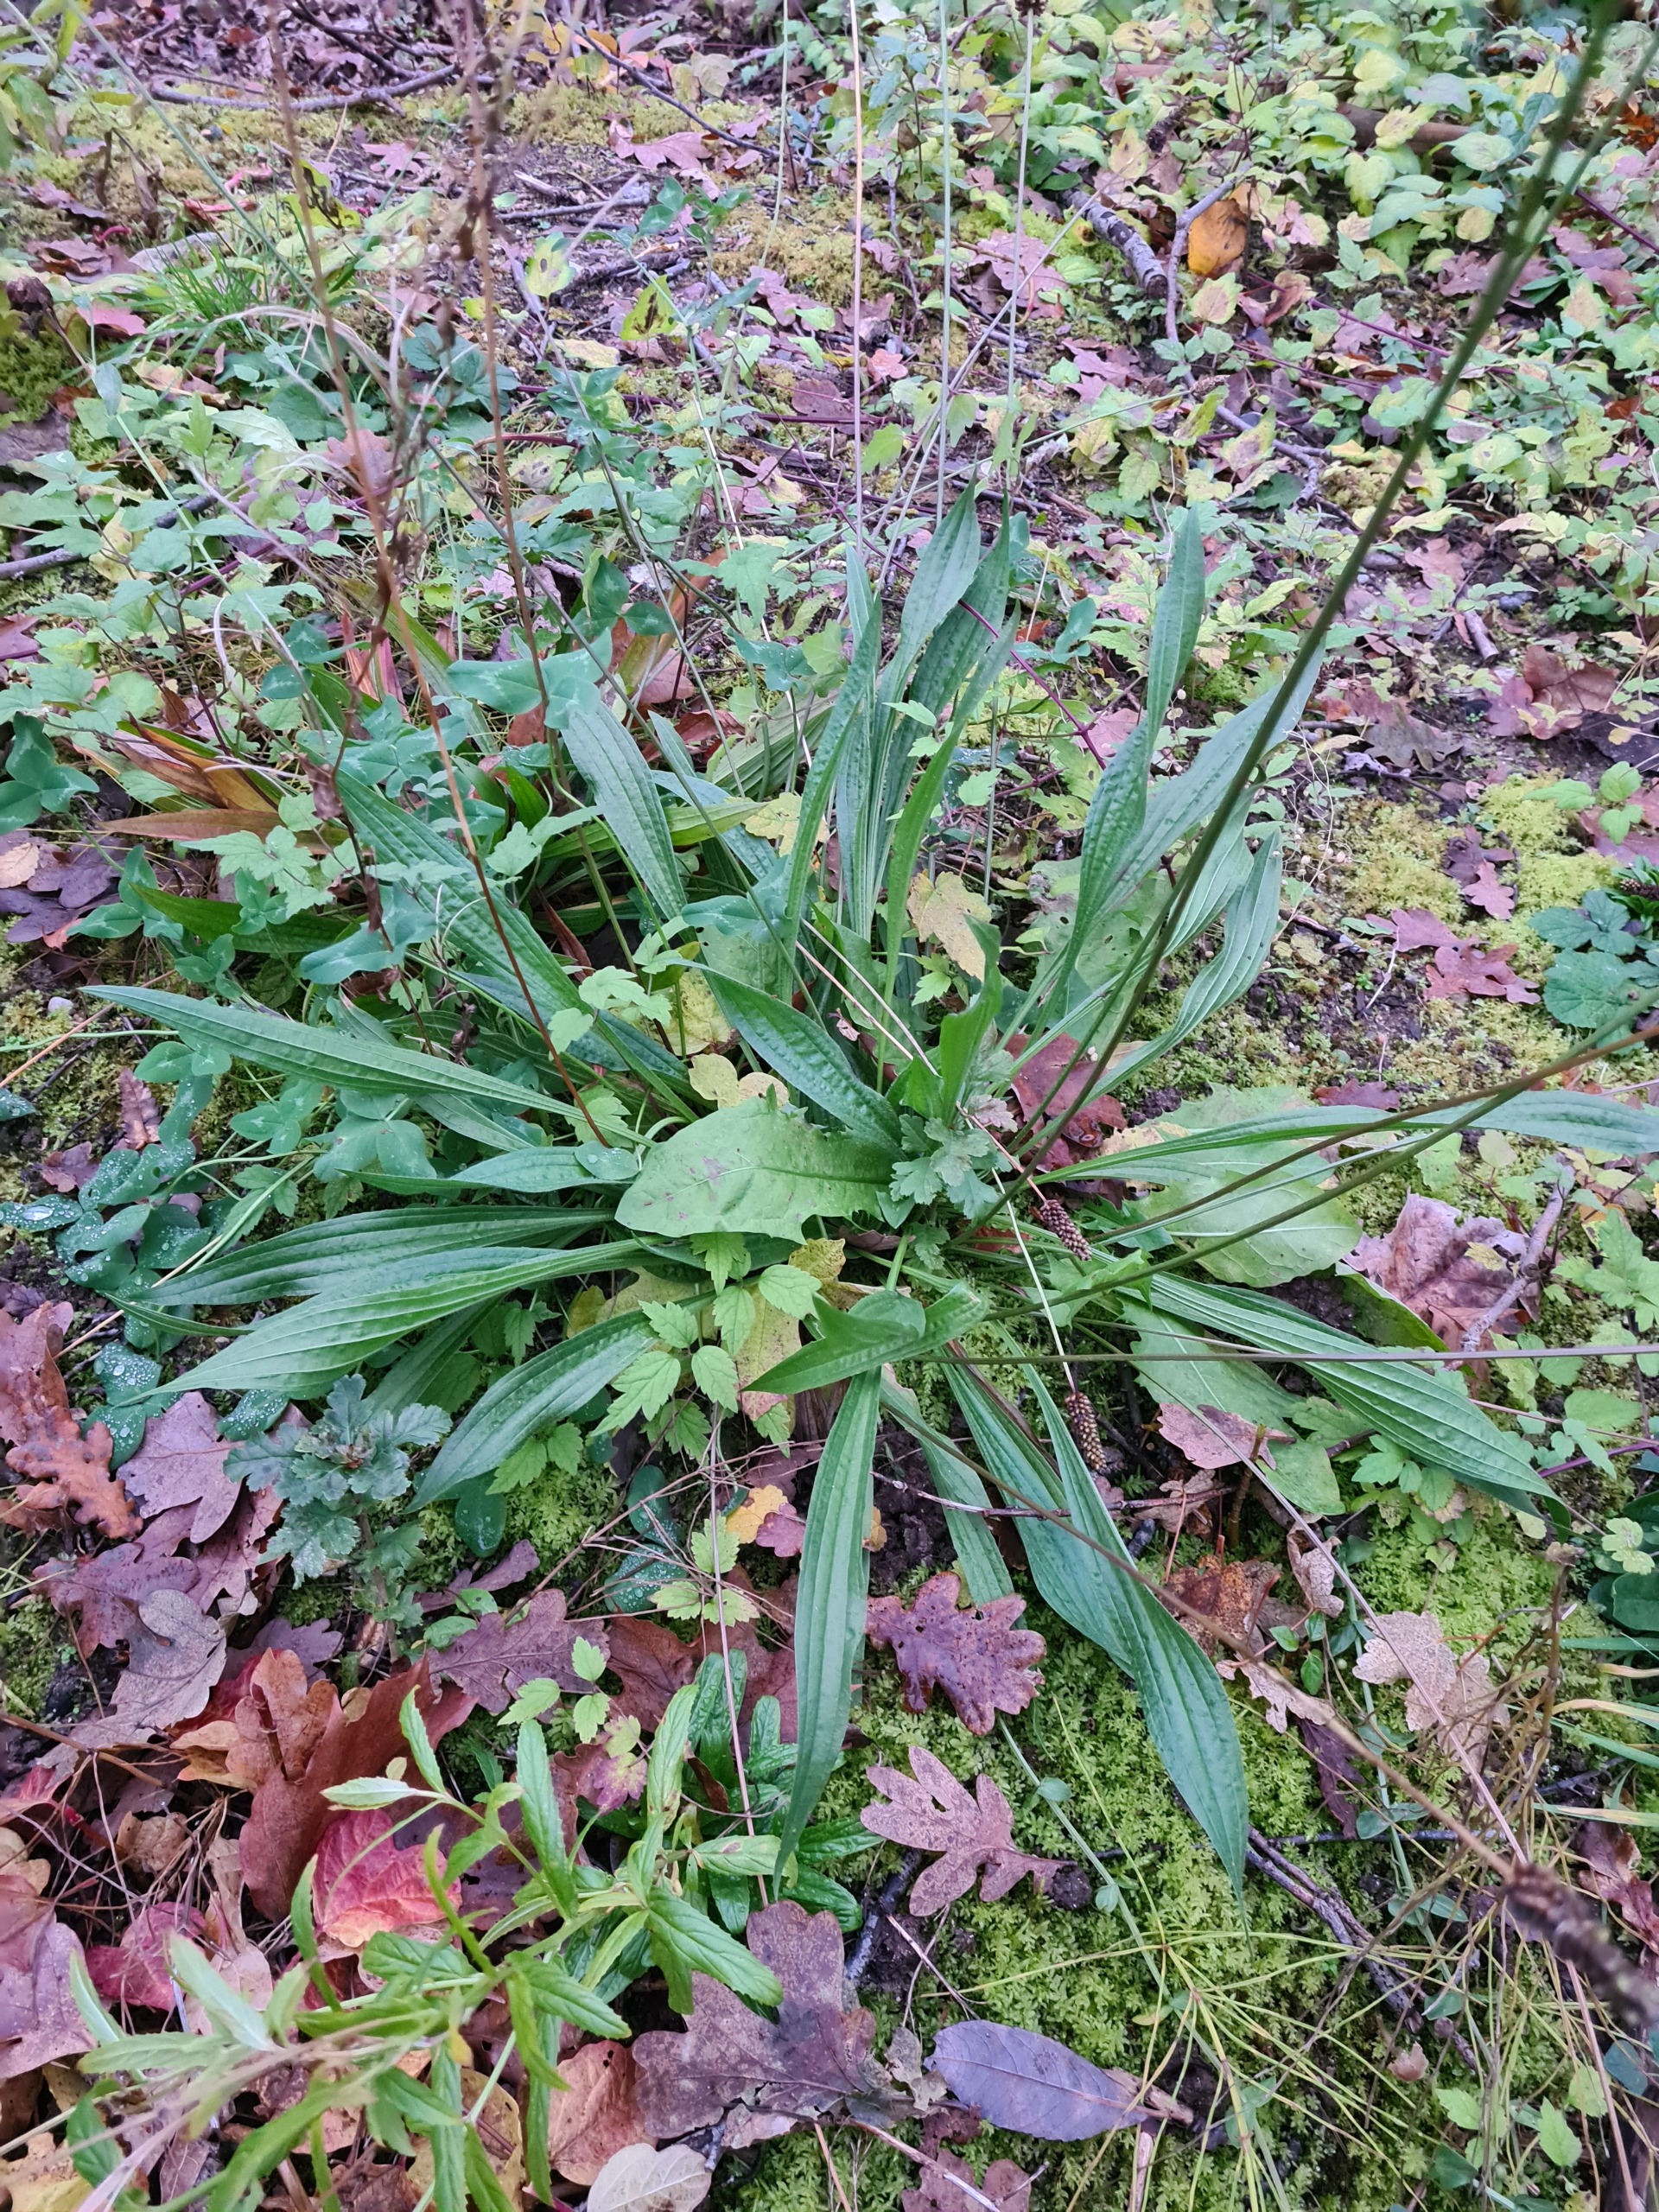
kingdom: Plantae
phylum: Tracheophyta
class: Magnoliopsida
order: Lamiales
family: Plantaginaceae
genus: Plantago
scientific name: Plantago lanceolata
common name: Lancet-vejbred
